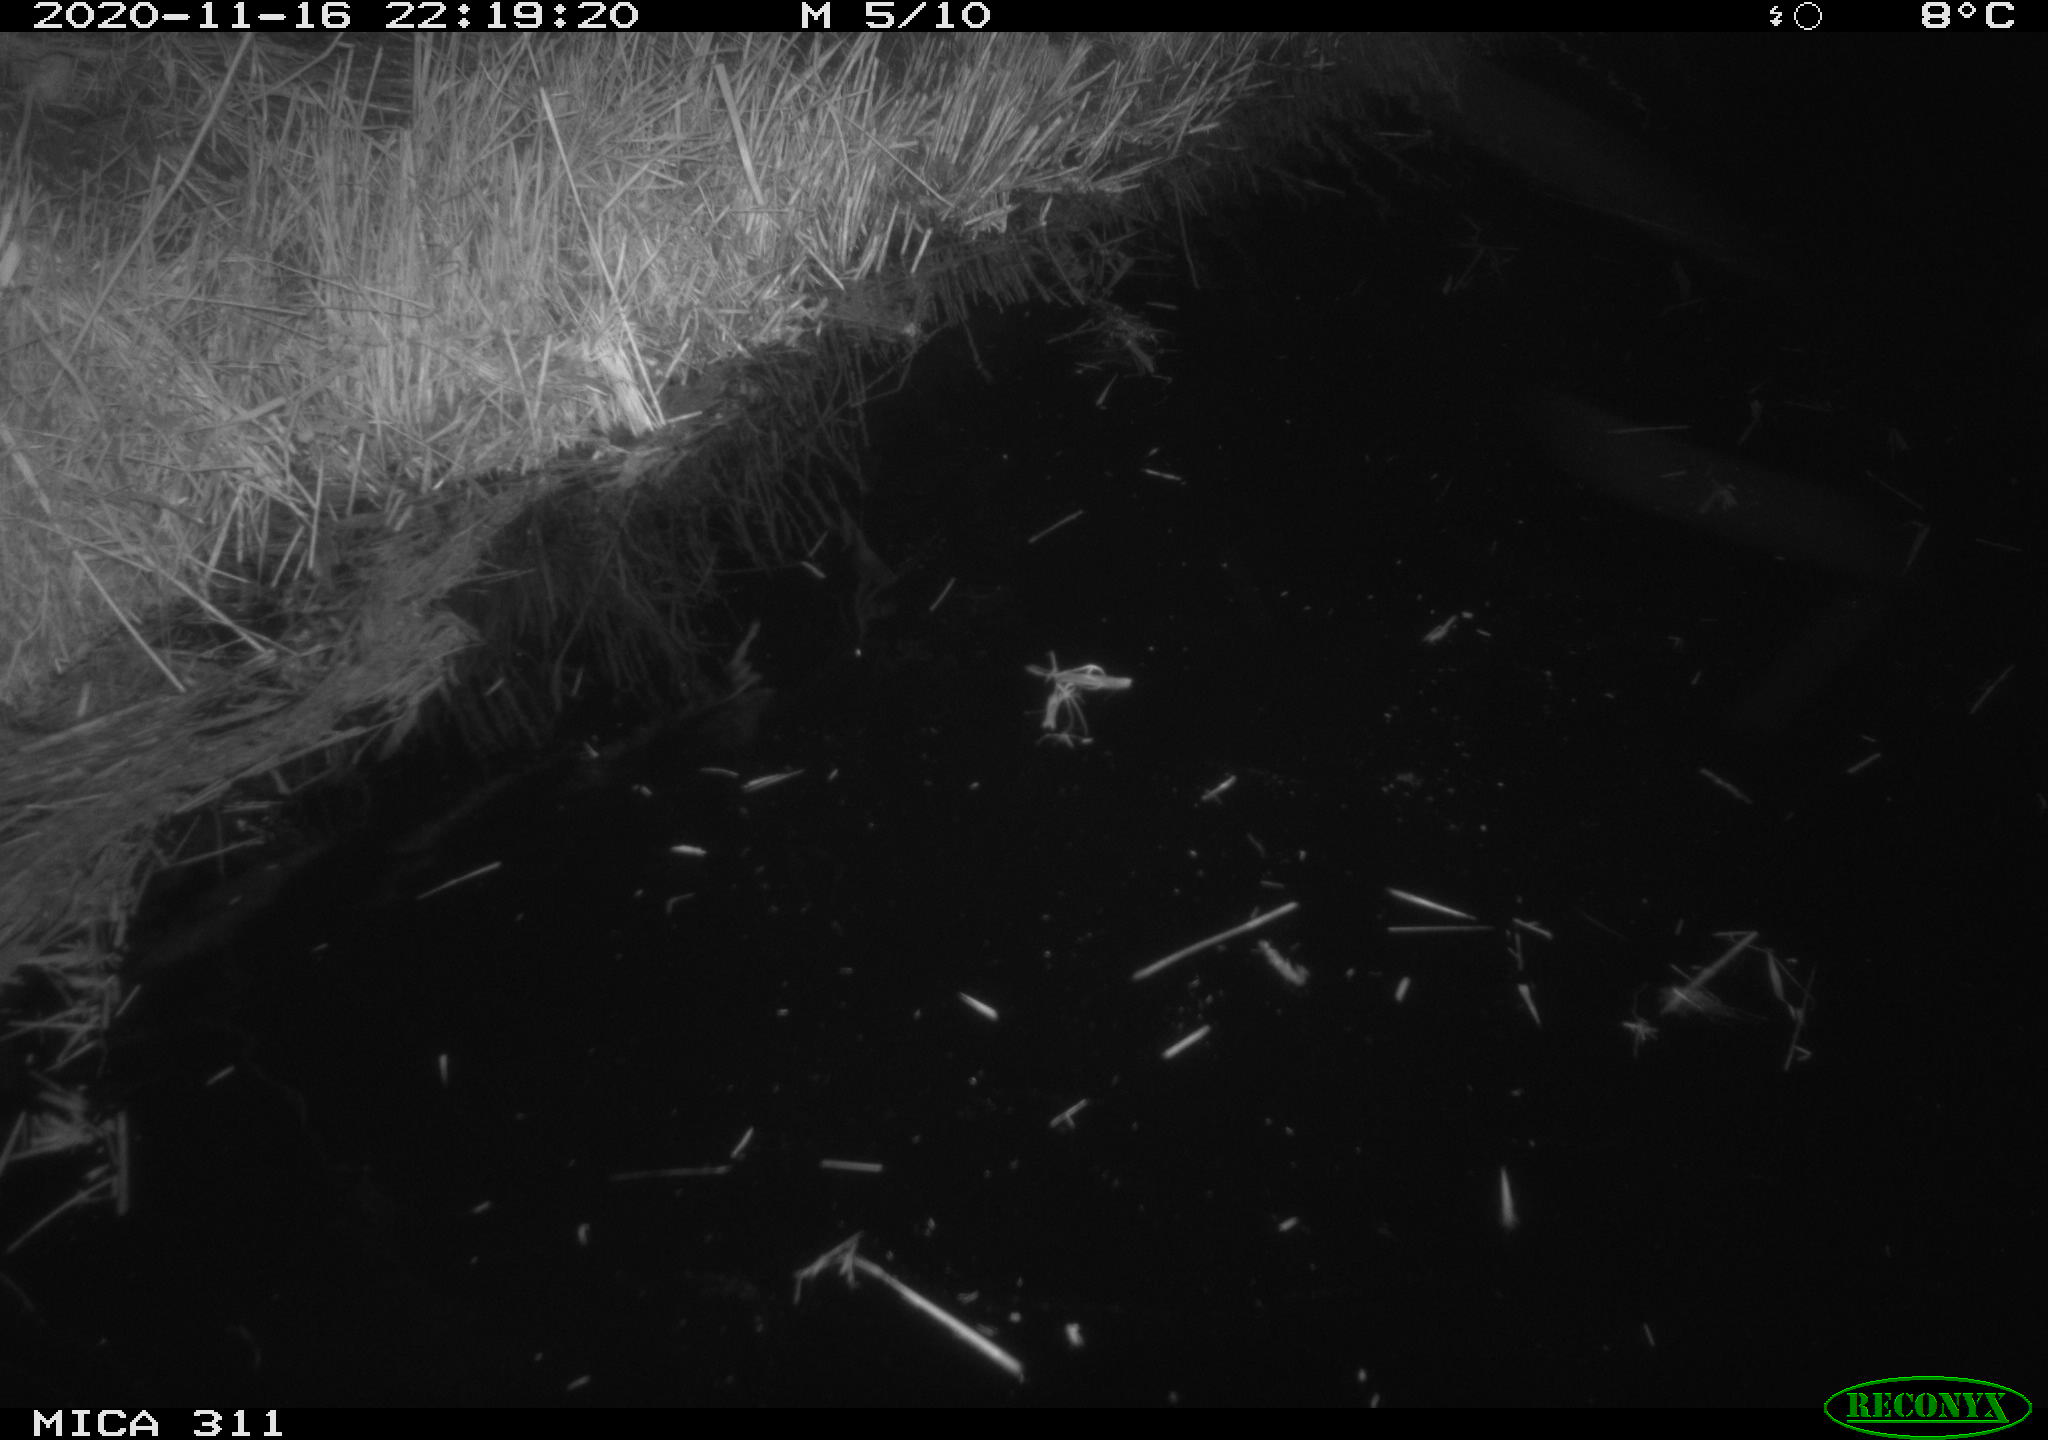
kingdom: Animalia
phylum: Chordata
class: Mammalia
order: Rodentia
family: Muridae
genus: Rattus
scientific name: Rattus norvegicus
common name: Brown rat
